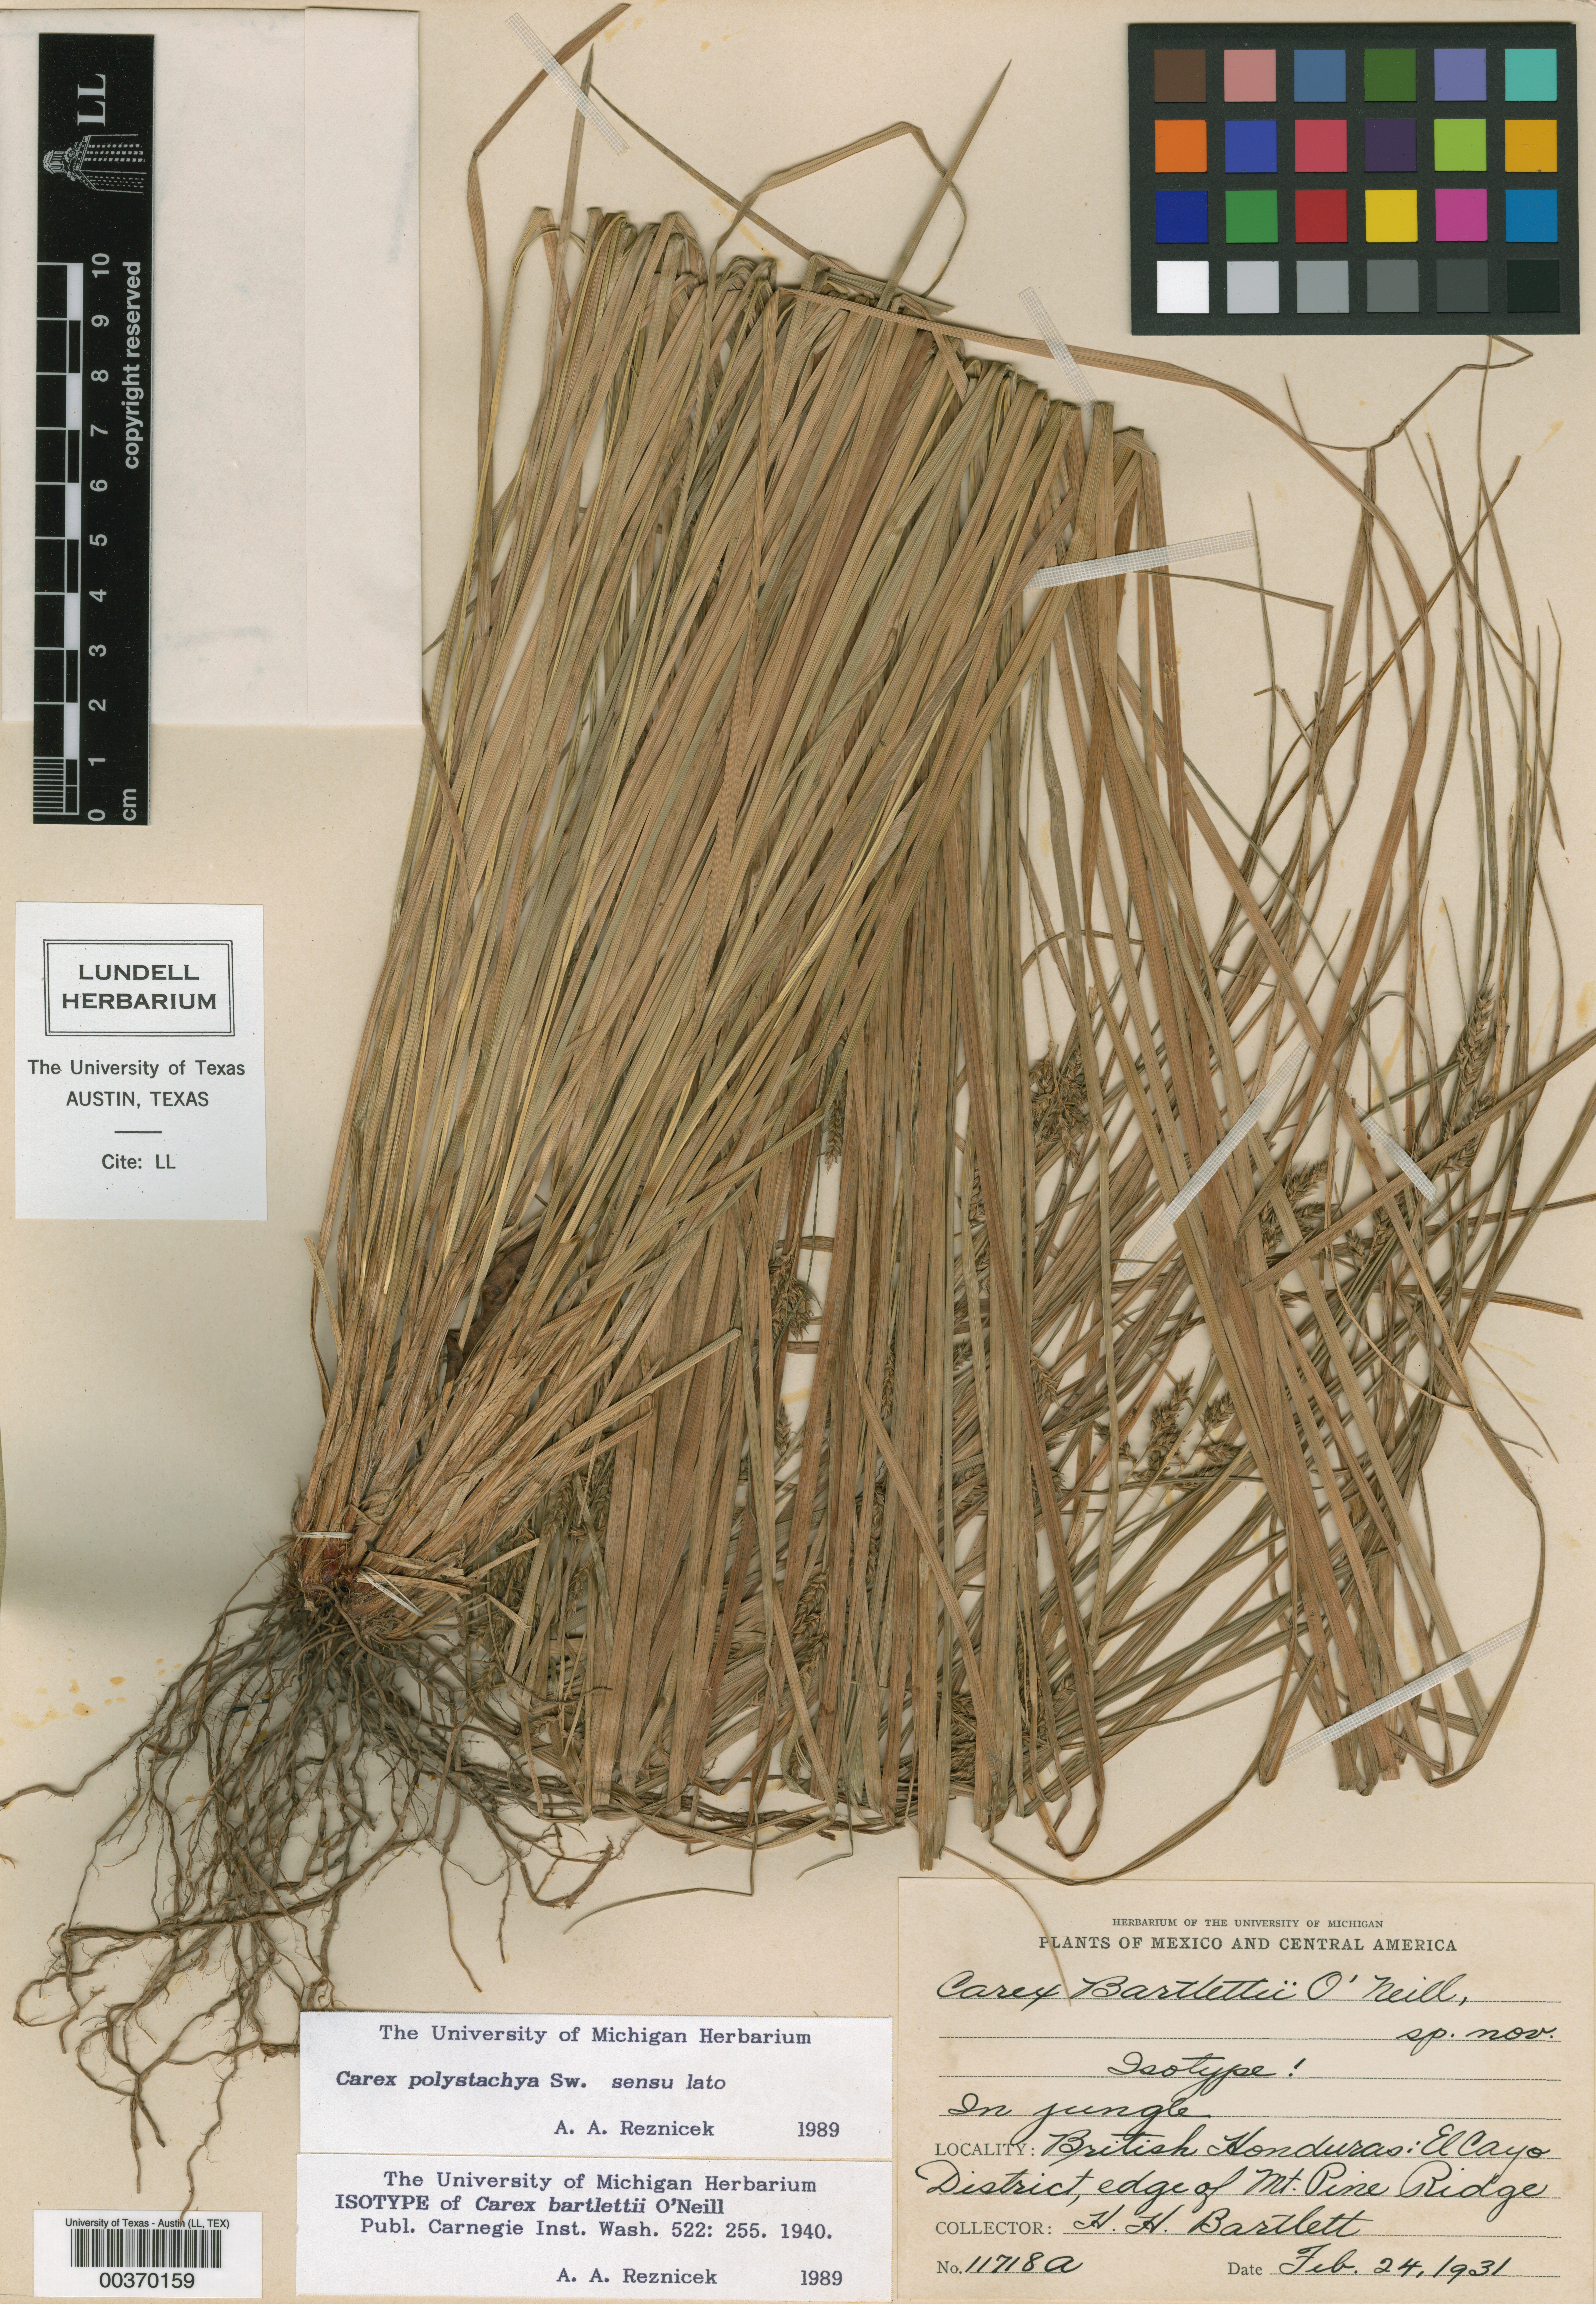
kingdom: Plantae
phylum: Tracheophyta
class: Liliopsida
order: Poales
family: Cyperaceae
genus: Carex
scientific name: Carex polystachya
